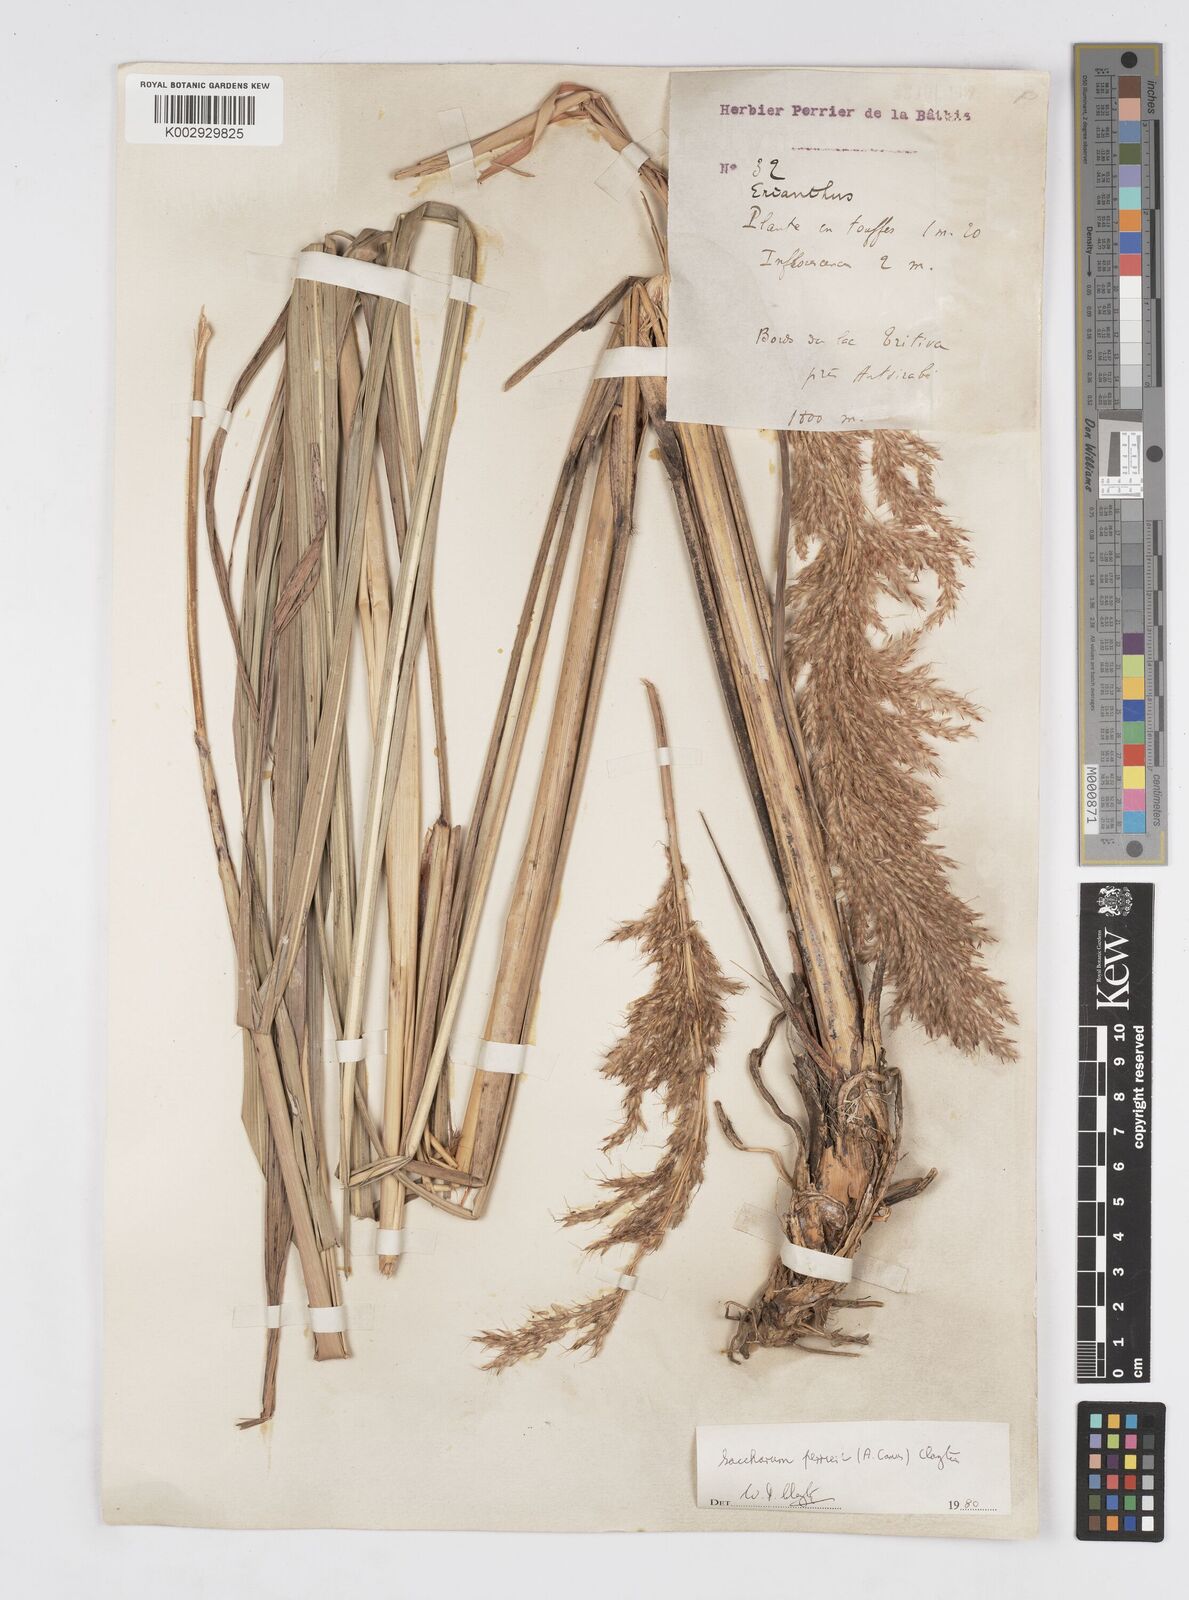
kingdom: Plantae
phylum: Tracheophyta
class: Liliopsida
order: Poales
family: Poaceae
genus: Lasiorhachis
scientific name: Lasiorhachis perrieri
